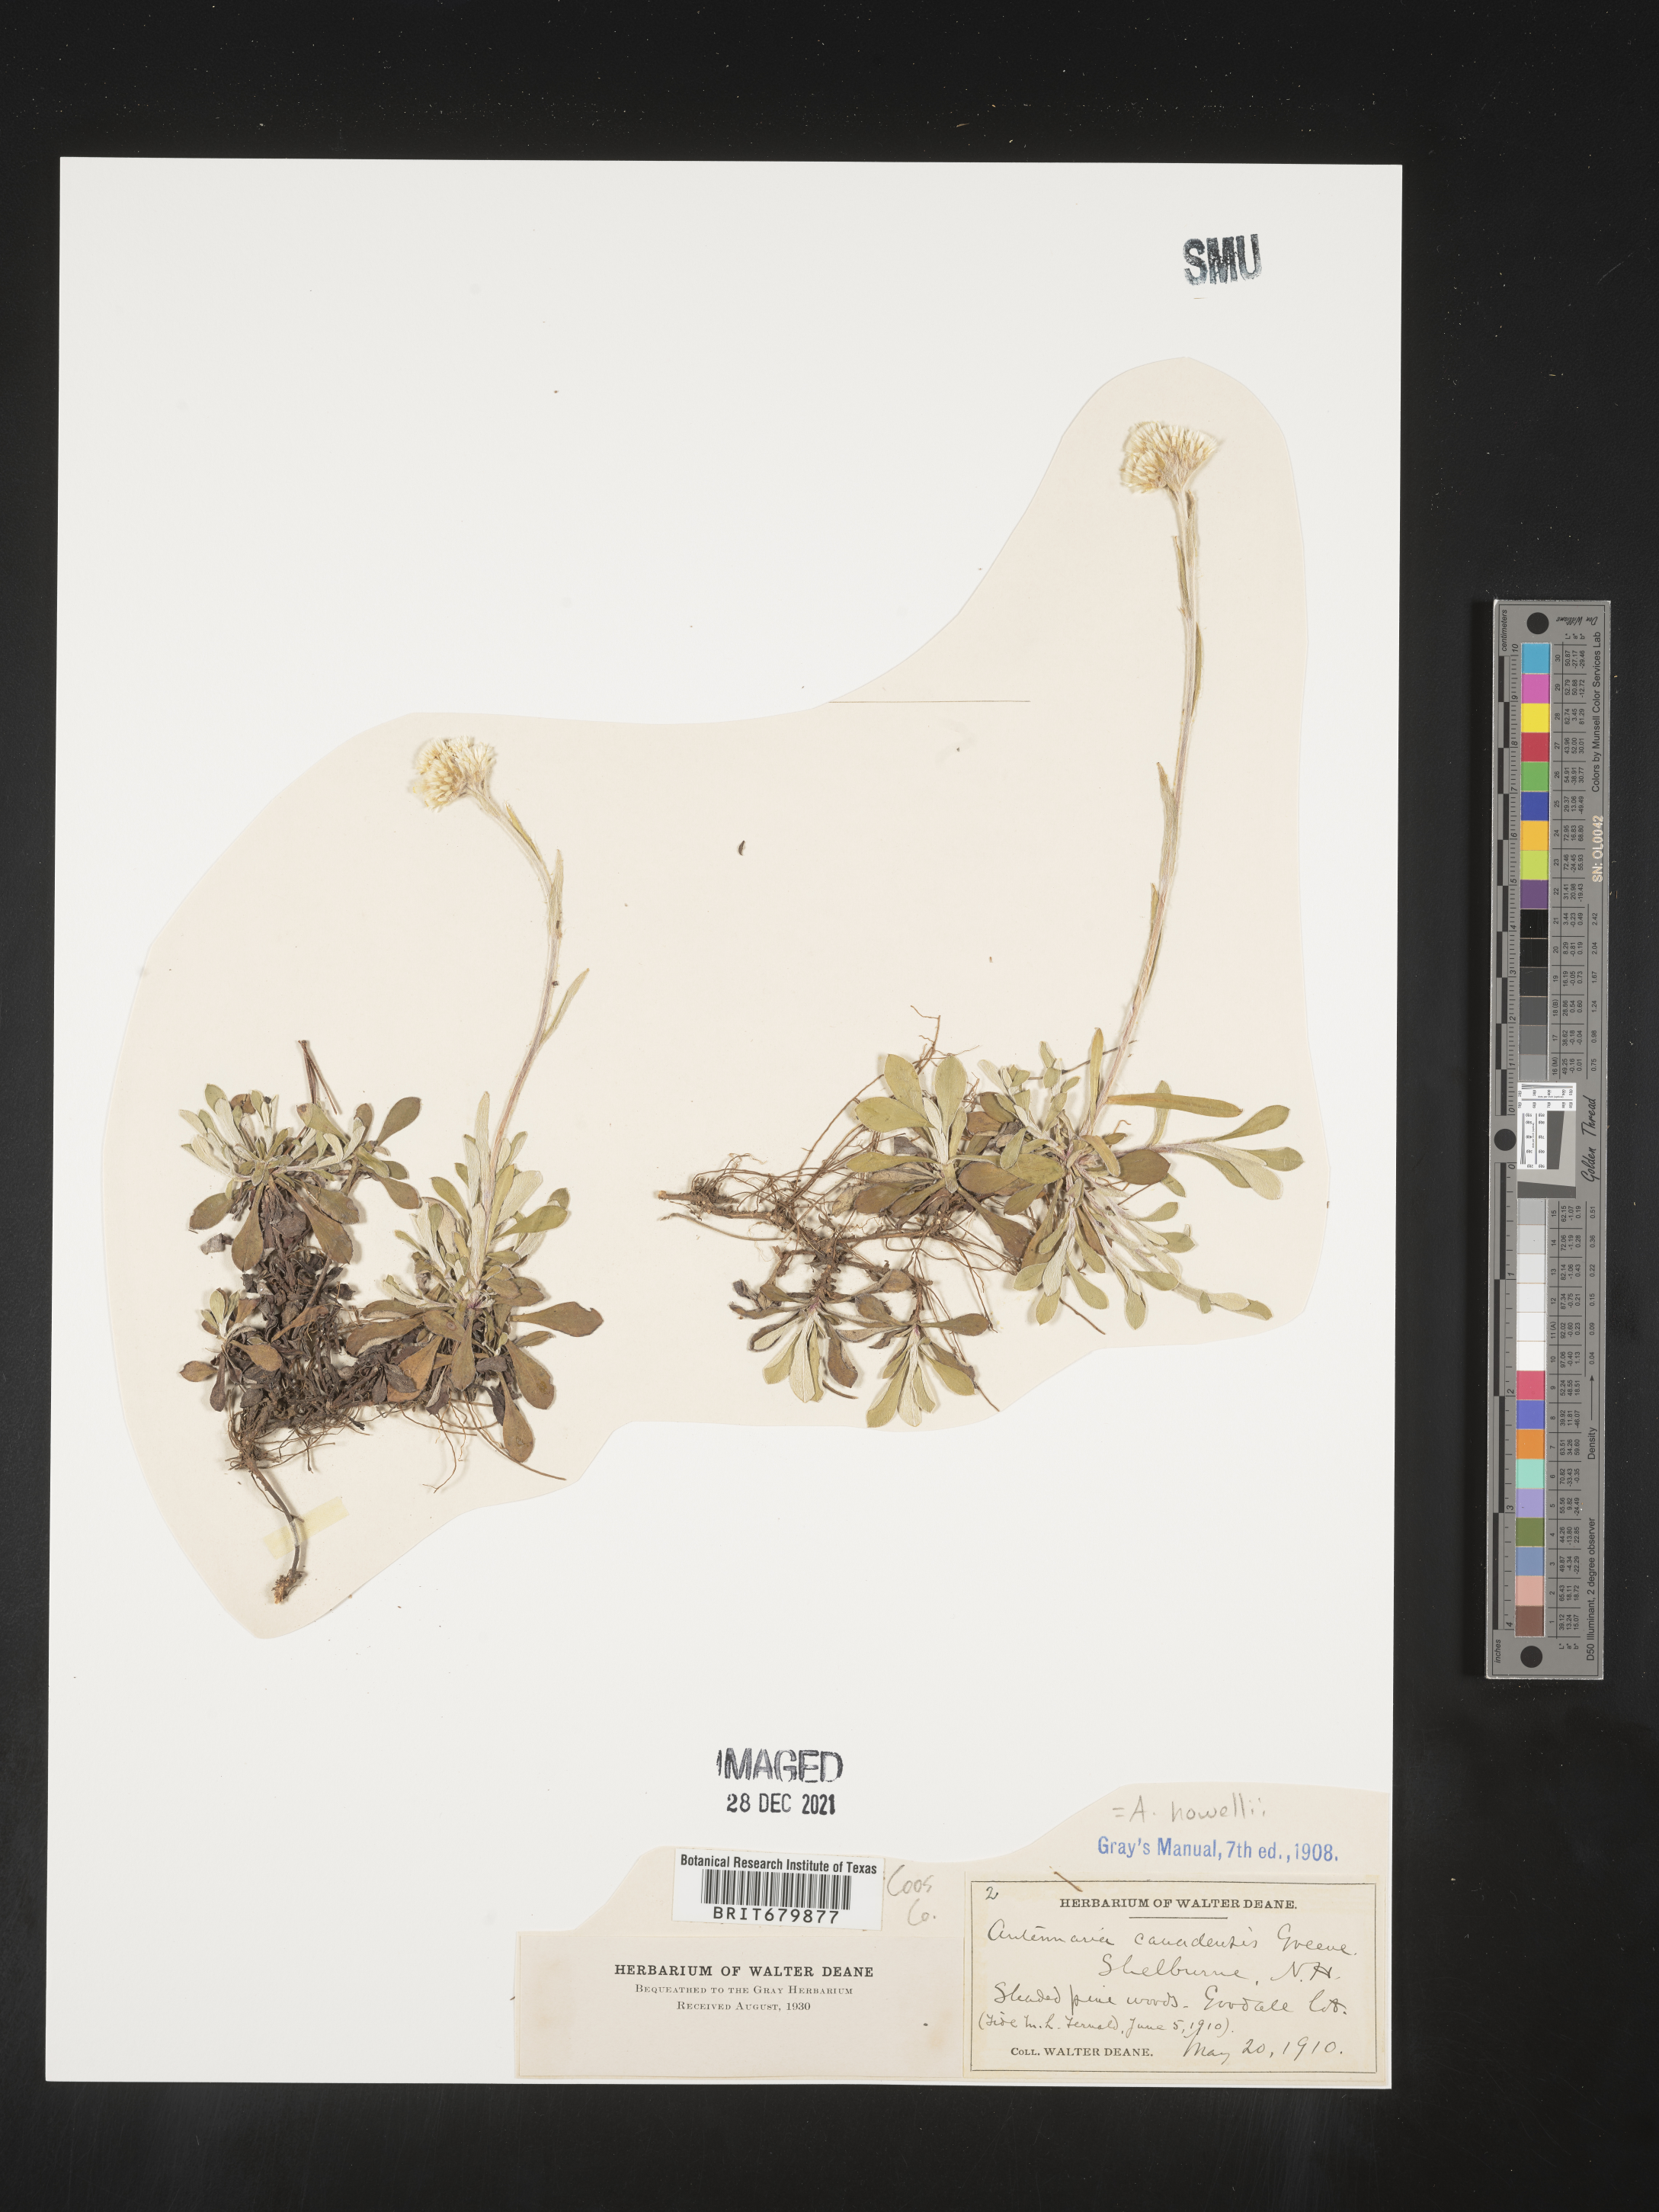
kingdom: Plantae
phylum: Tracheophyta
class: Magnoliopsida
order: Asterales
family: Asteraceae
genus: Antennaria
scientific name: Antennaria howellii
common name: Howell's pussytoes
